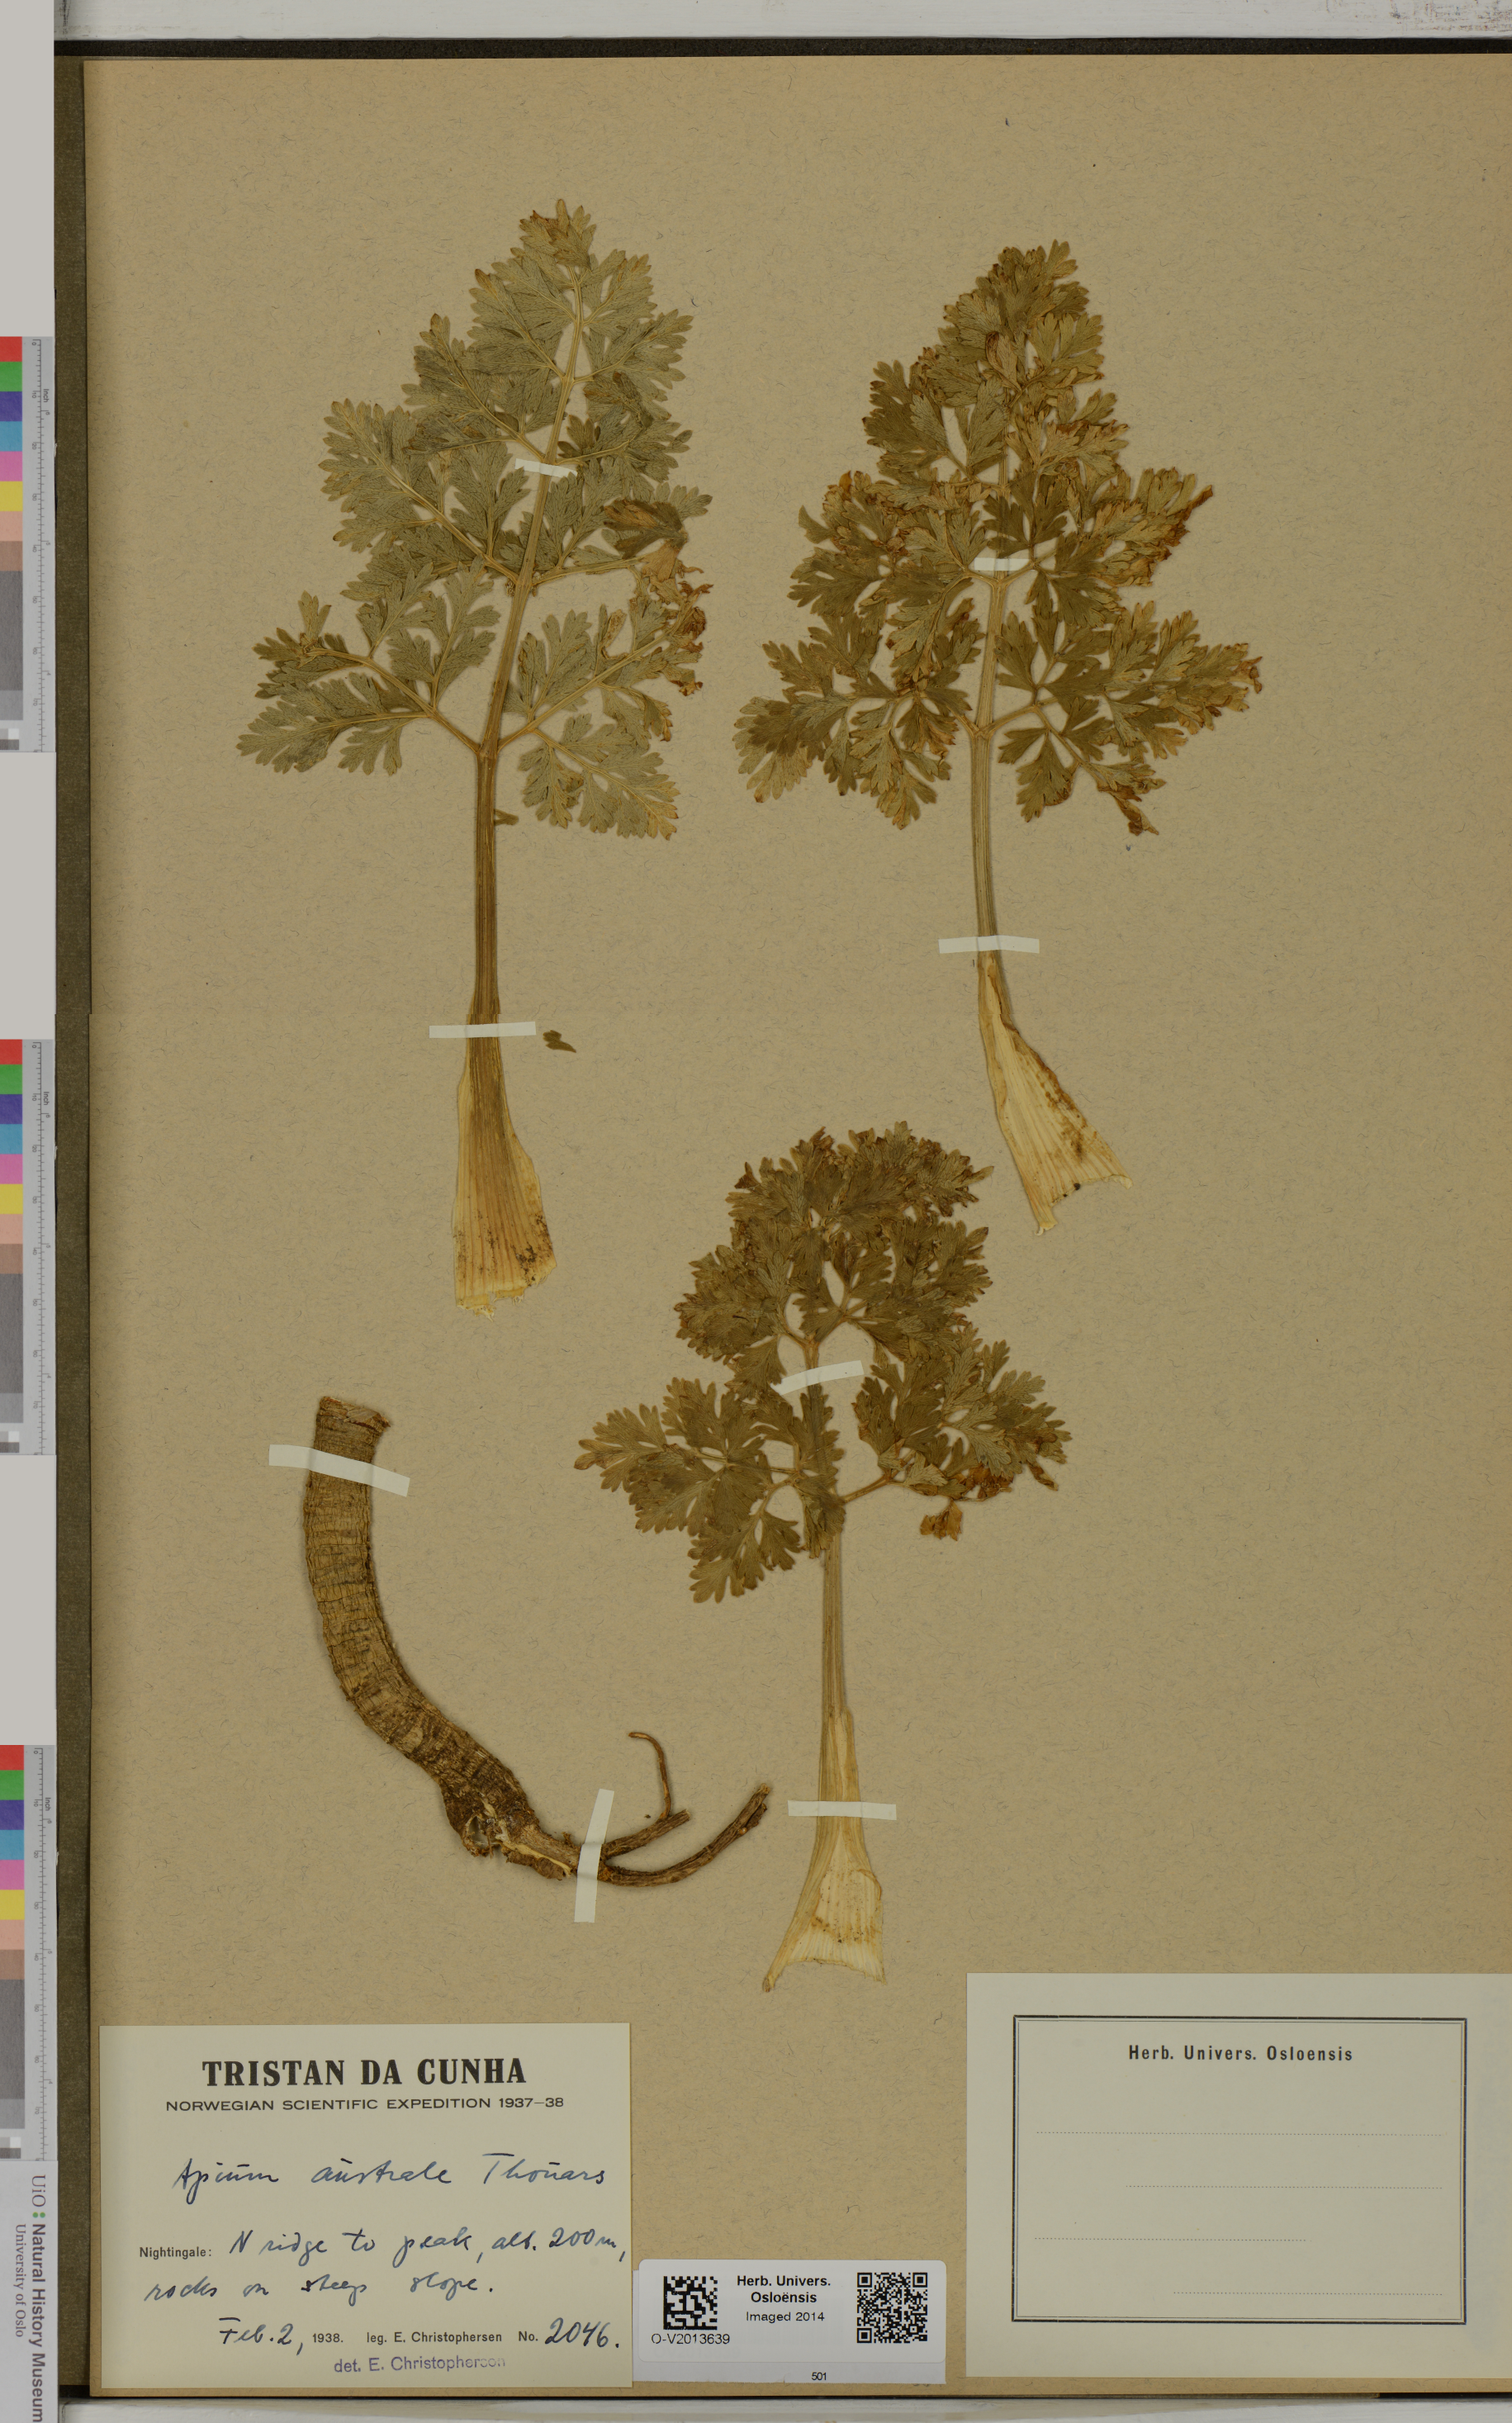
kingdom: Plantae
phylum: Tracheophyta
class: Magnoliopsida
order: Apiales
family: Apiaceae
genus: Apium
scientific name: Apium prostratum
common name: Prostrate marshwort
